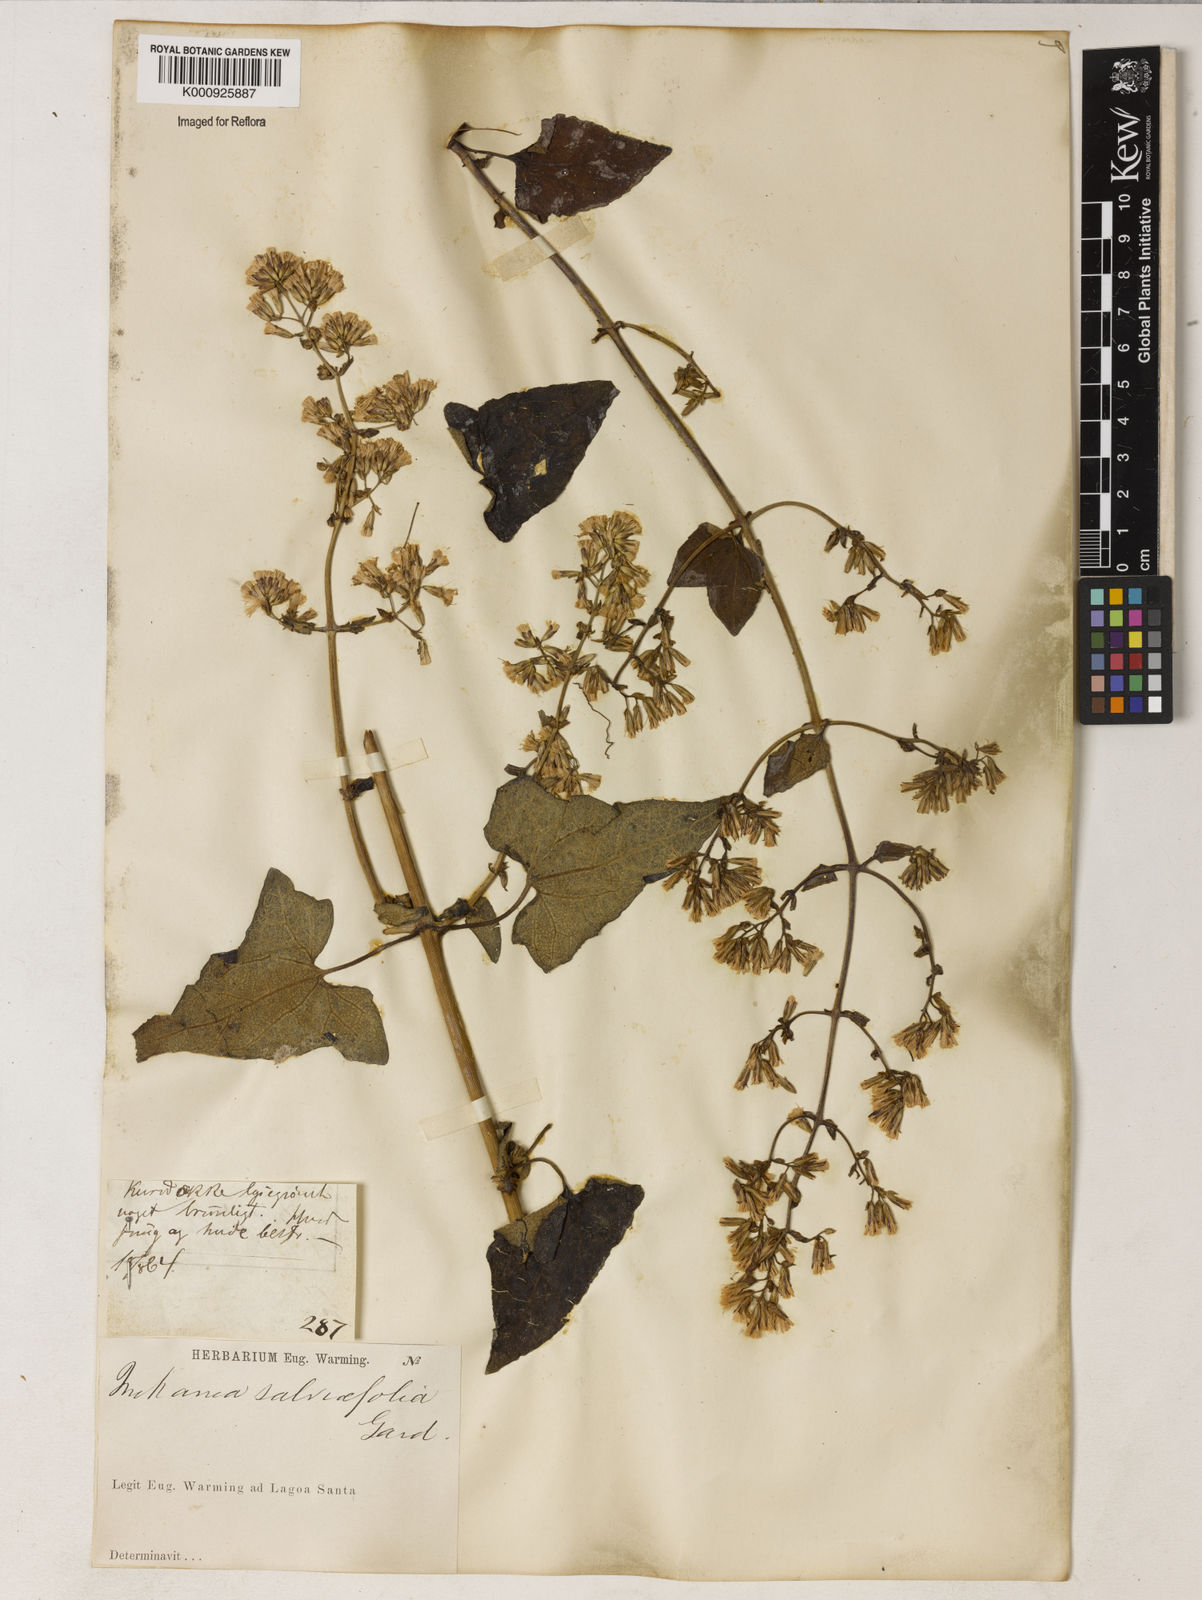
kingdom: Plantae
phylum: Tracheophyta
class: Magnoliopsida
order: Asterales
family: Asteraceae
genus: Mikania
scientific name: Mikania
